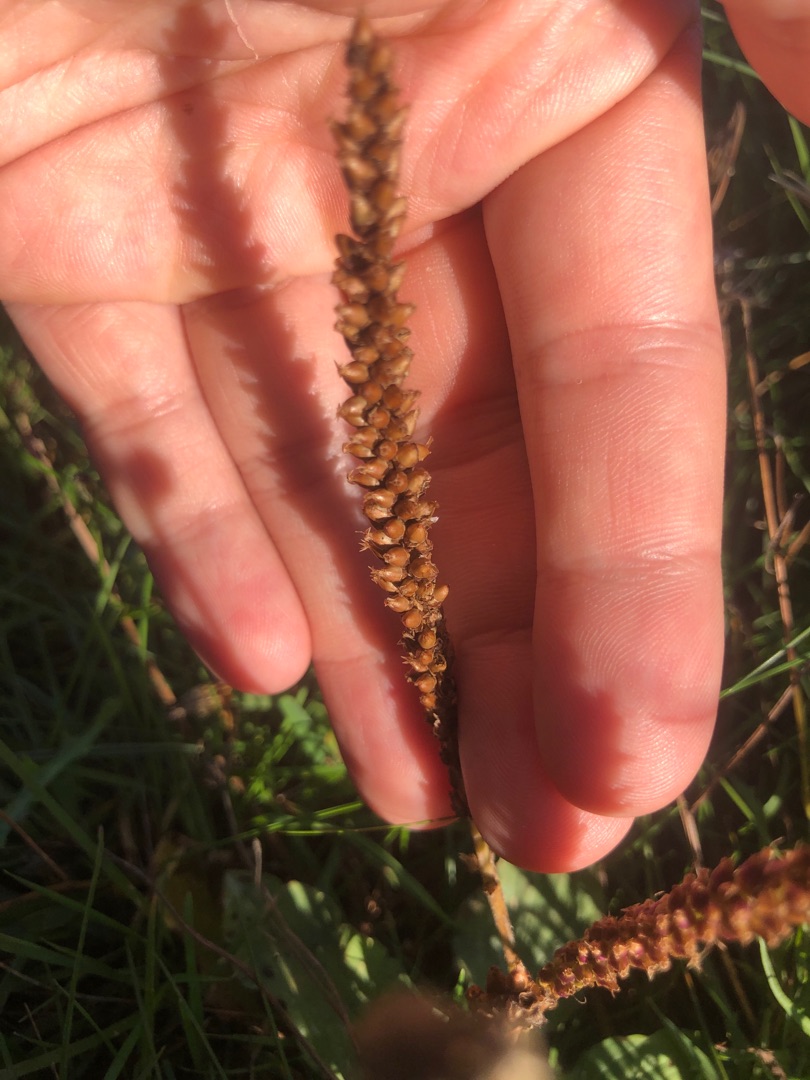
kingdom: Plantae
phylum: Tracheophyta
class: Magnoliopsida
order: Lamiales
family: Plantaginaceae
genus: Plantago
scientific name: Plantago major
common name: Glat vejbred
